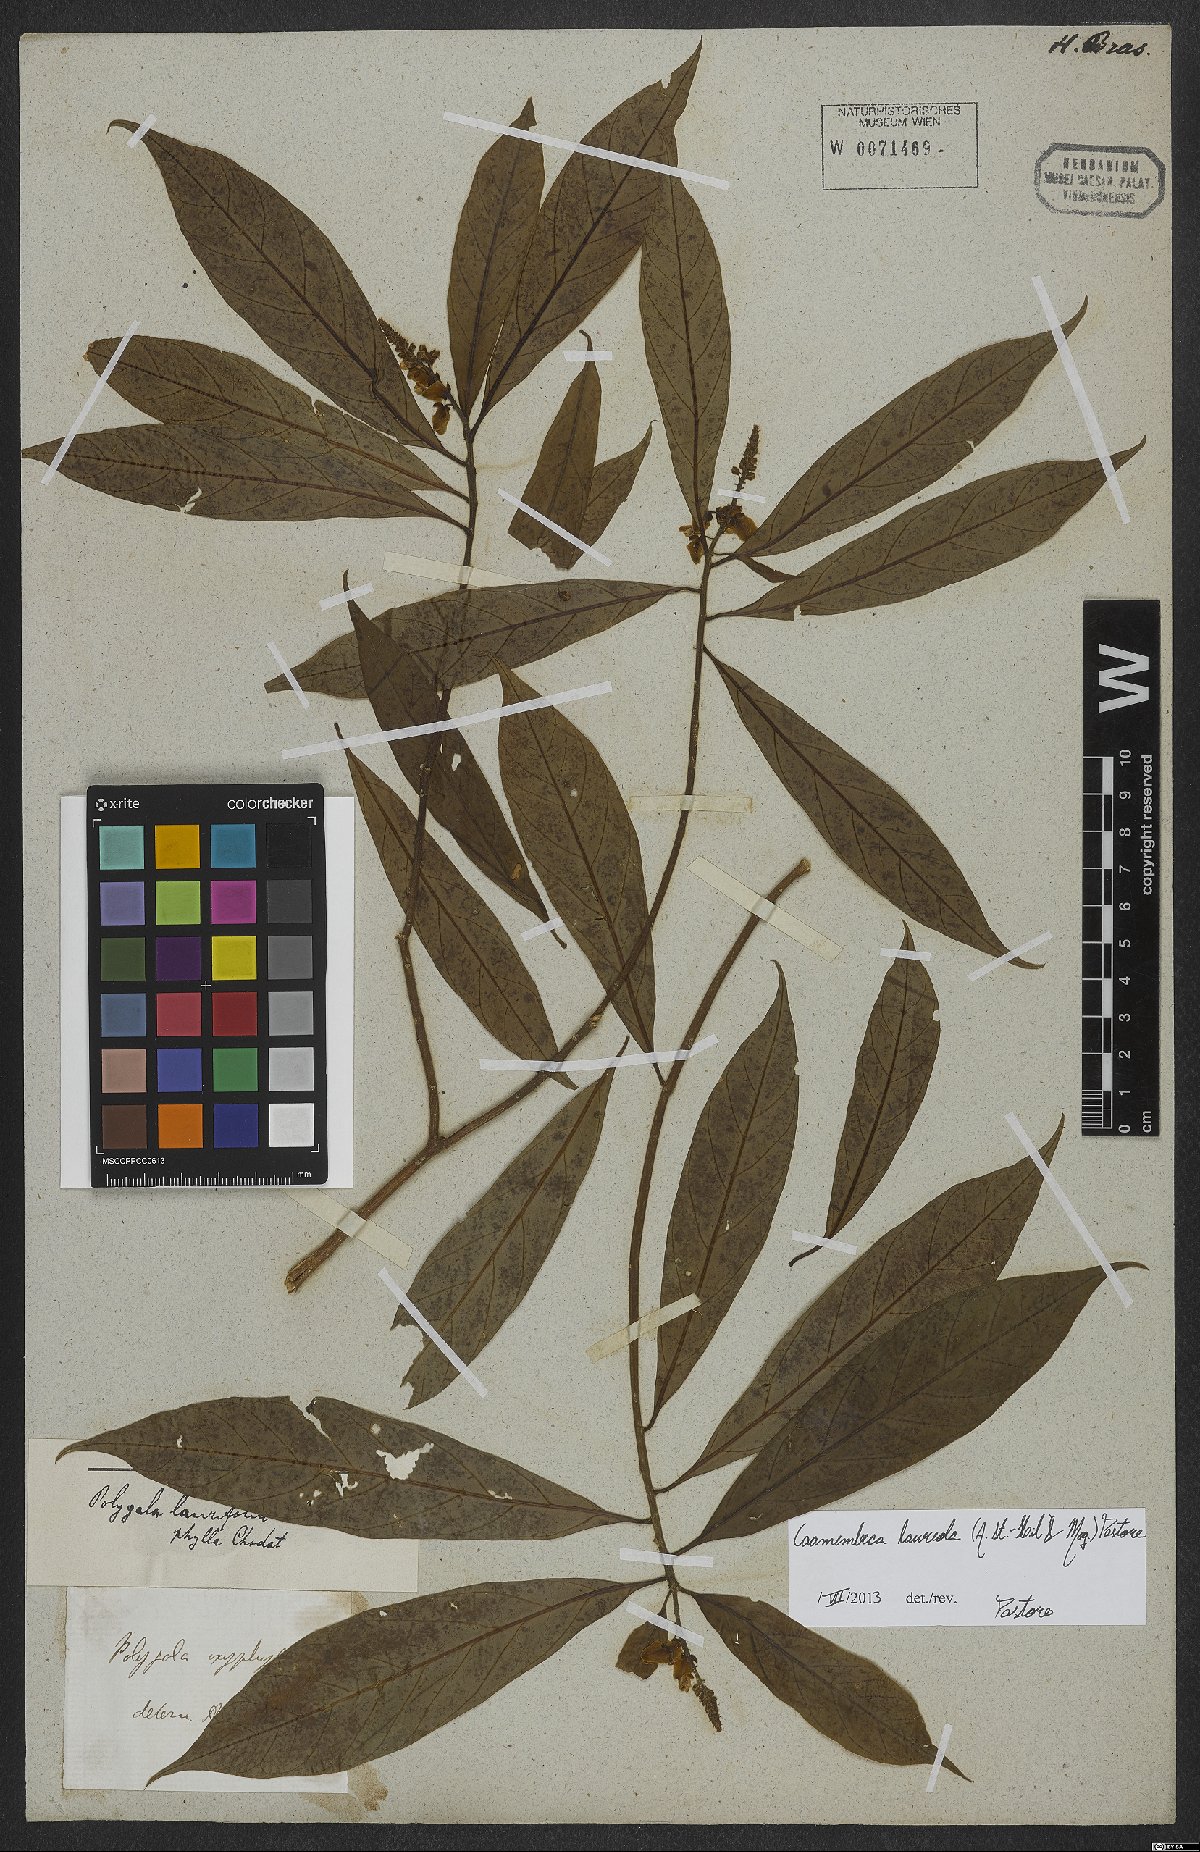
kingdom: Plantae
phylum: Tracheophyta
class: Magnoliopsida
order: Fabales
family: Polygalaceae
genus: Caamembeca
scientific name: Caamembeca salicifolia
